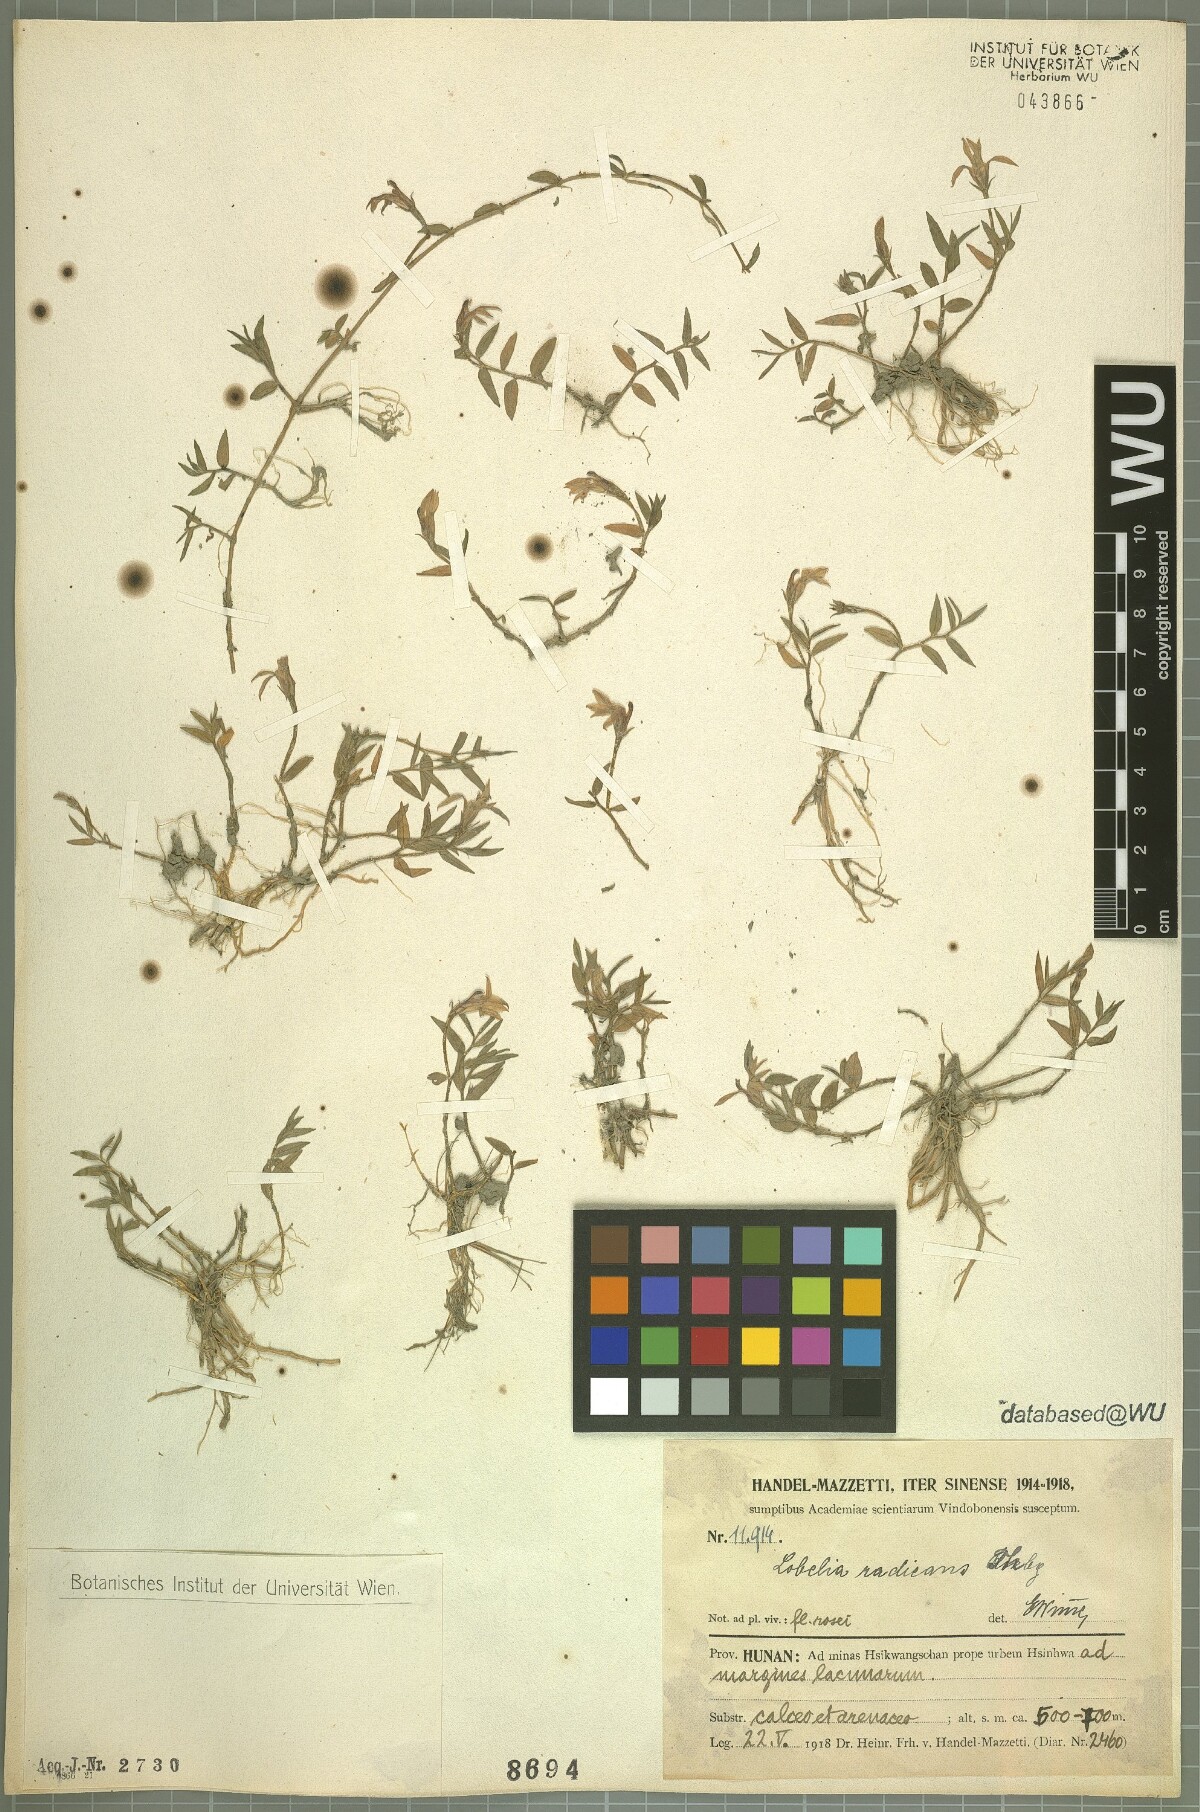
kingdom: Plantae
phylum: Tracheophyta
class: Magnoliopsida
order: Asterales
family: Campanulaceae
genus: Lobelia
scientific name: Lobelia chinensis
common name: Chinese lobelia
